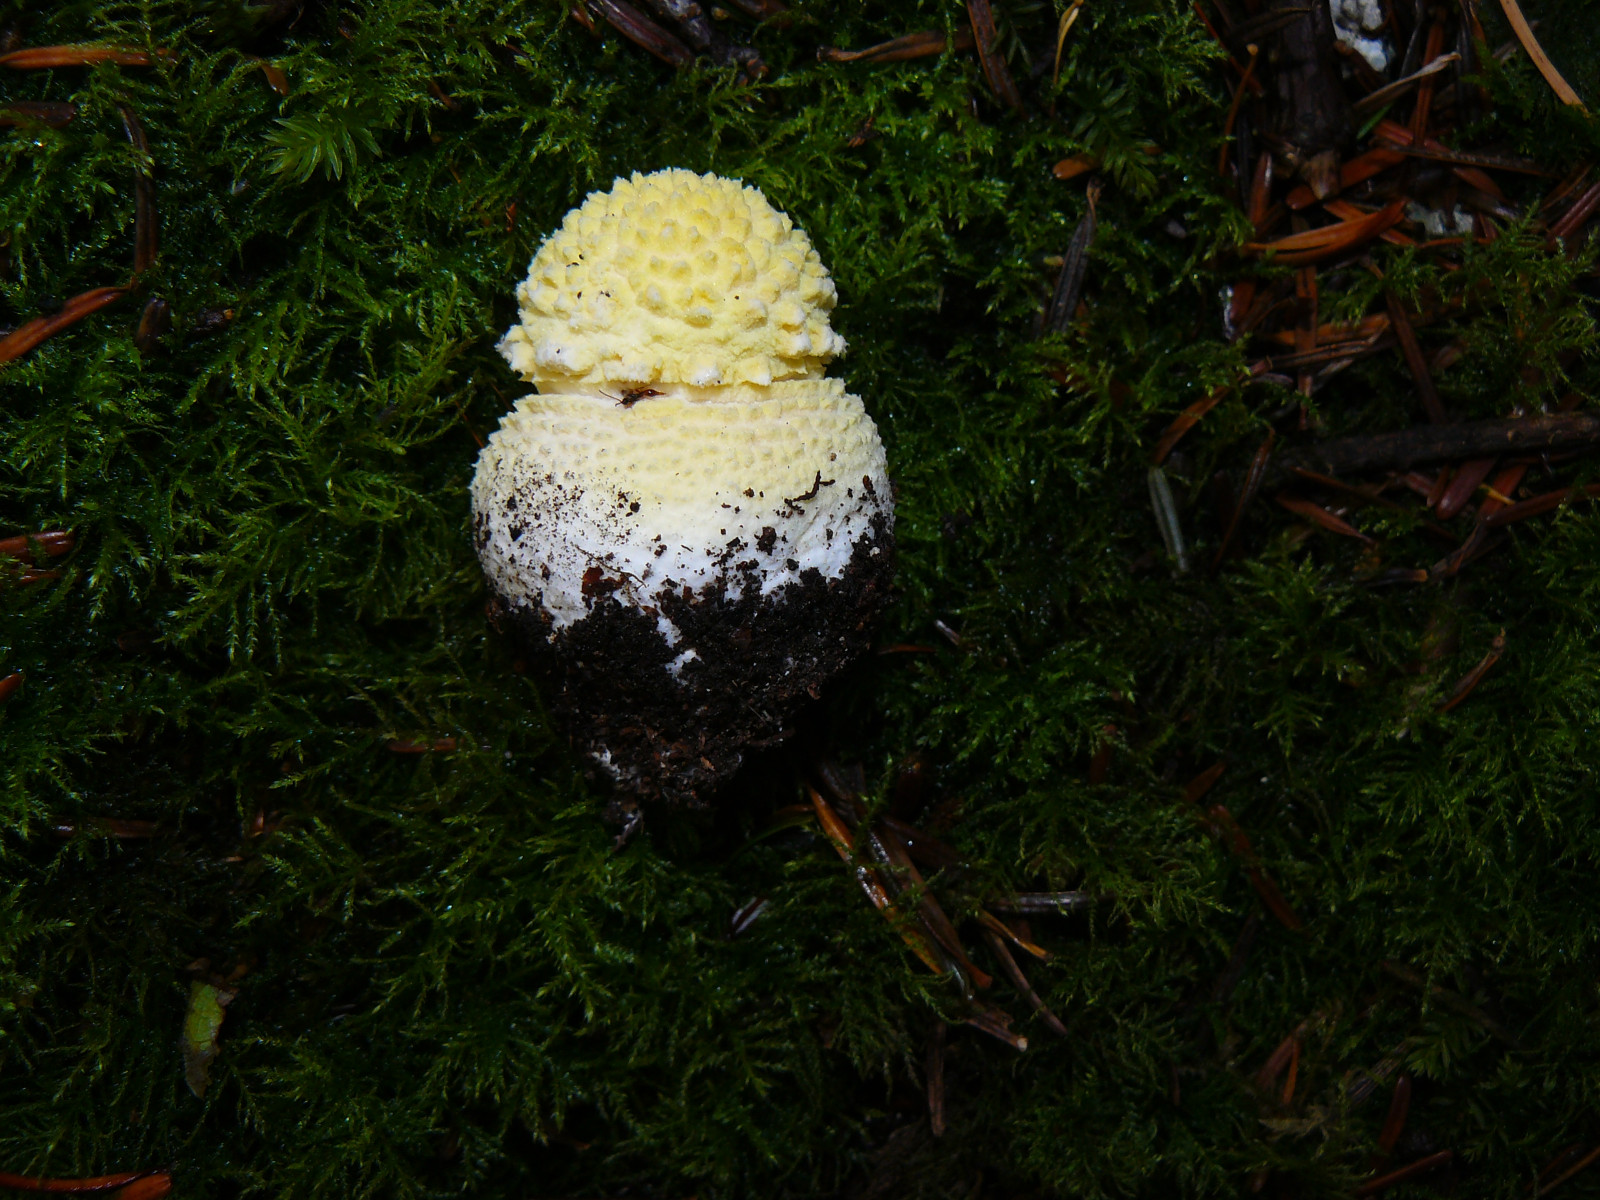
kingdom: Fungi
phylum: Basidiomycota
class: Agaricomycetes
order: Agaricales
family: Amanitaceae
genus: Amanita
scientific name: Amanita muscaria
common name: rød fluesvamp
